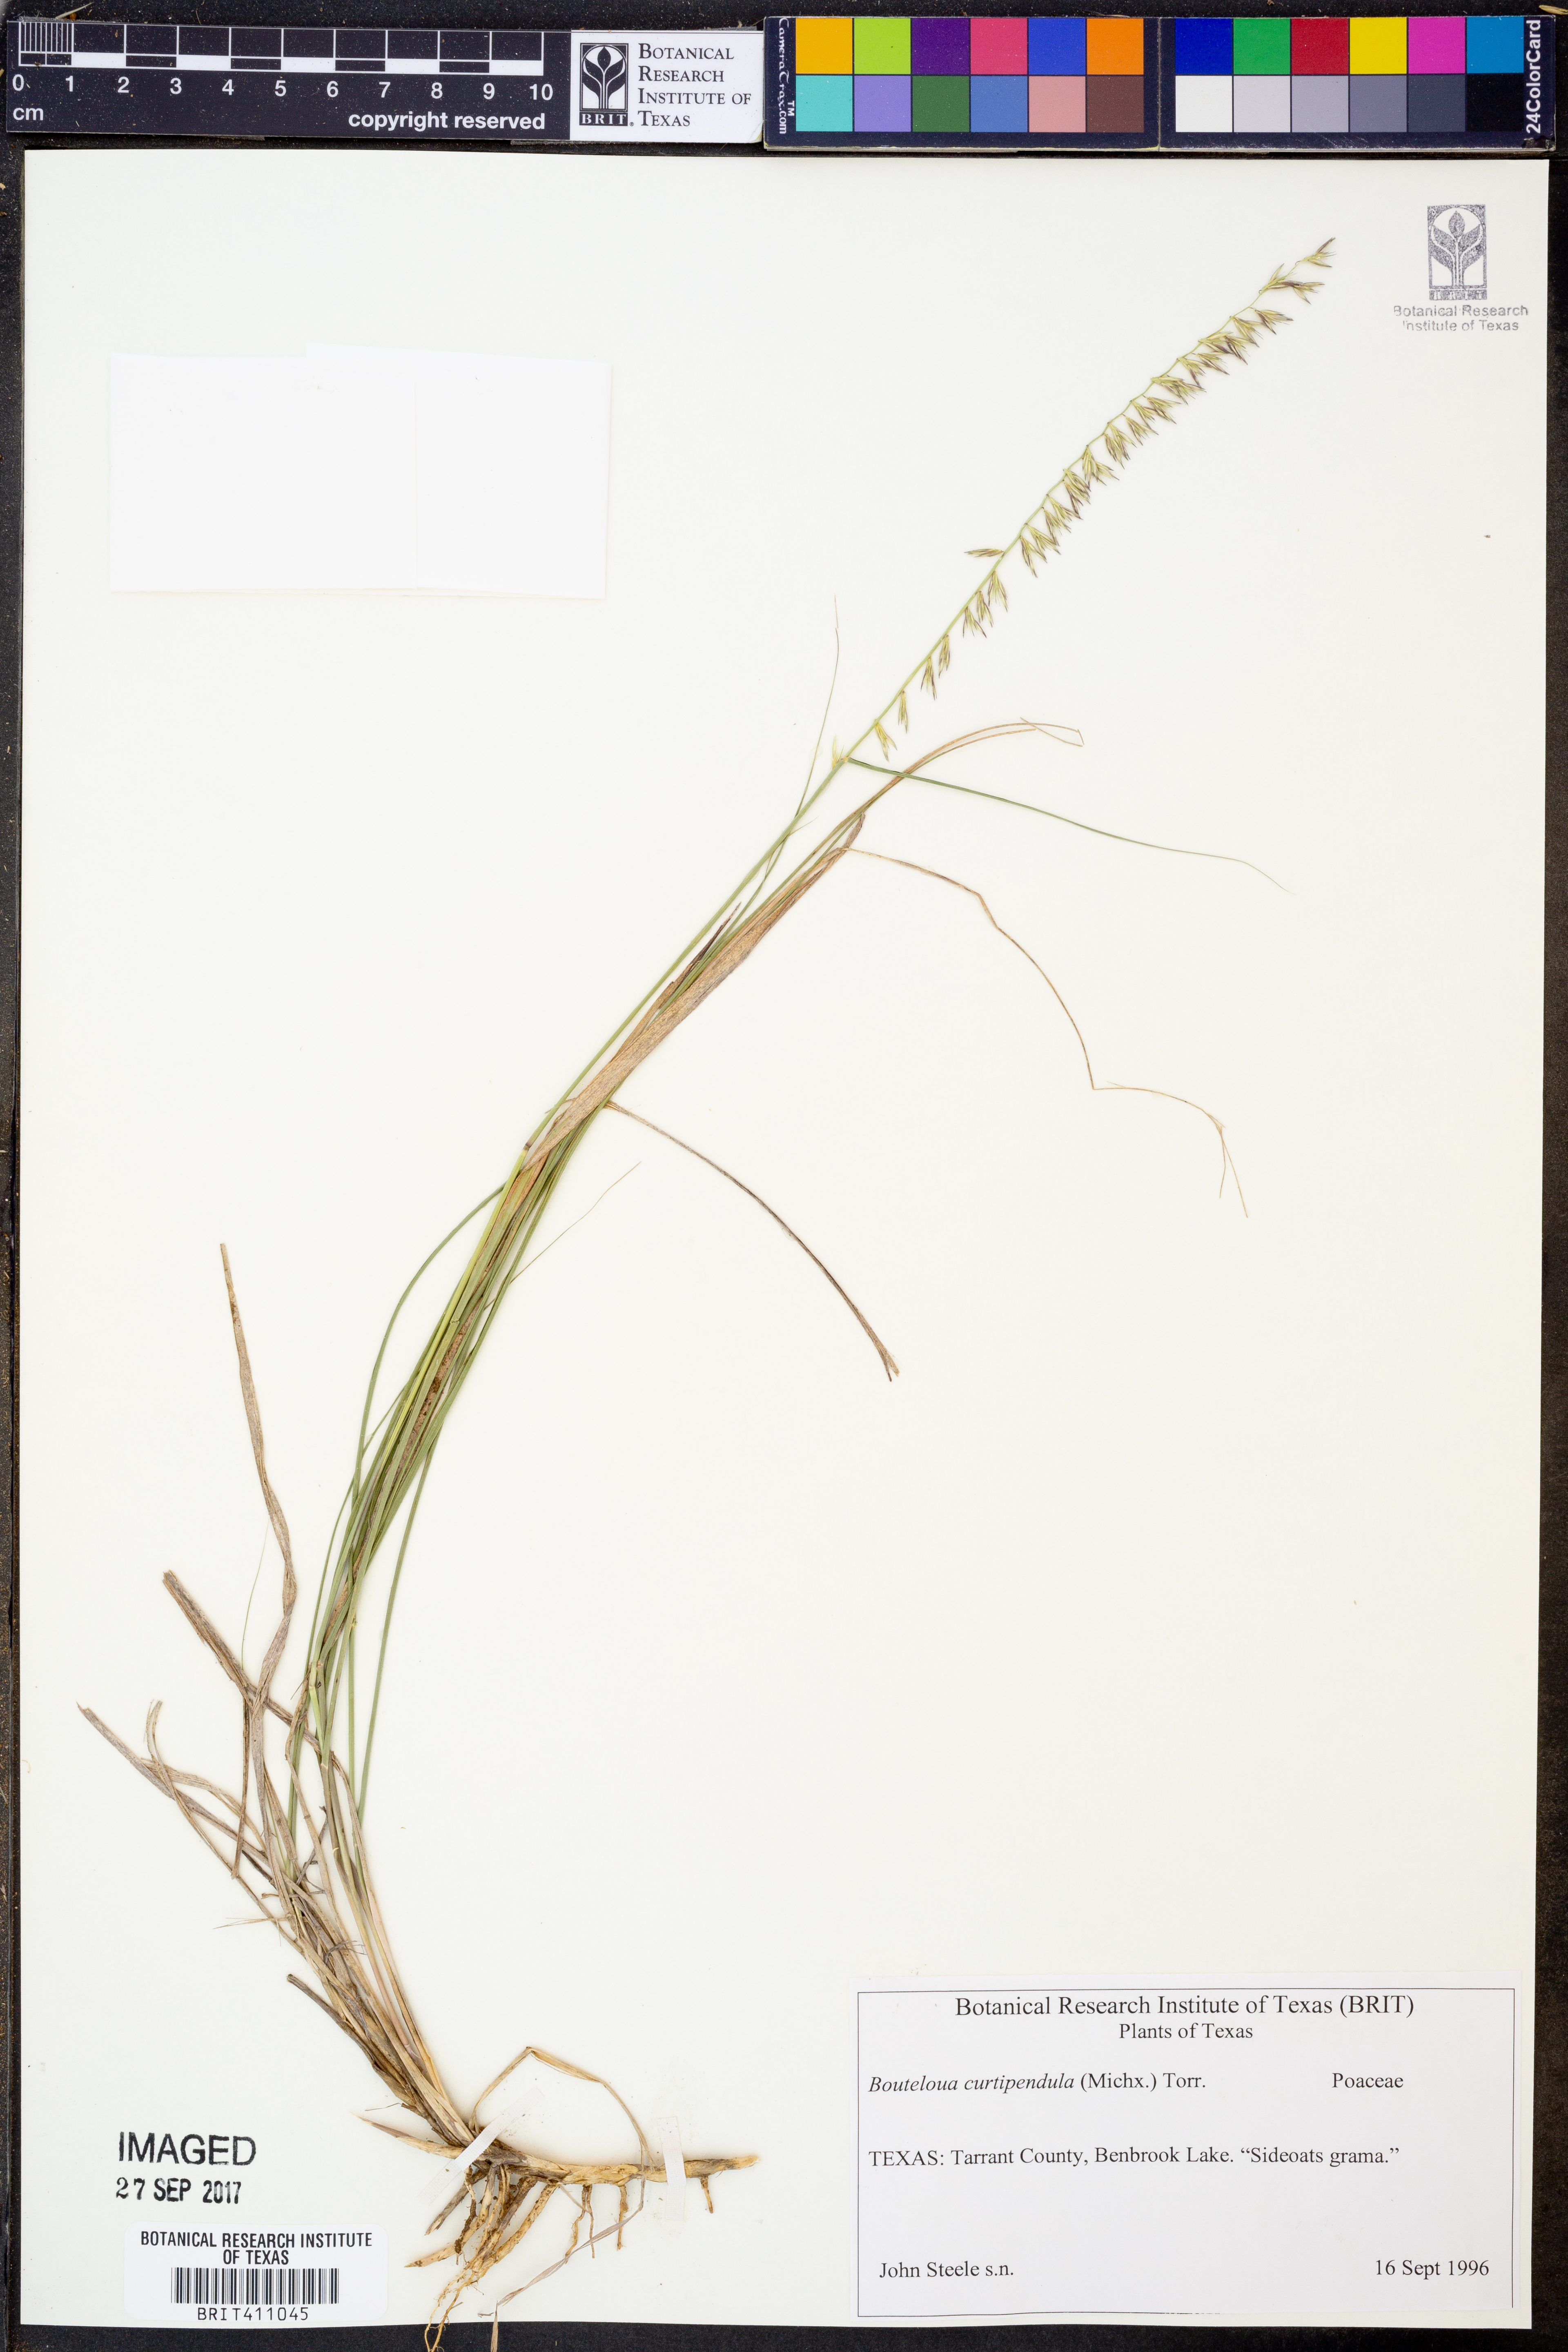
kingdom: Plantae
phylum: Tracheophyta
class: Liliopsida
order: Poales
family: Poaceae
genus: Bouteloua
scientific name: Bouteloua curtipendula
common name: Side-oats grama
